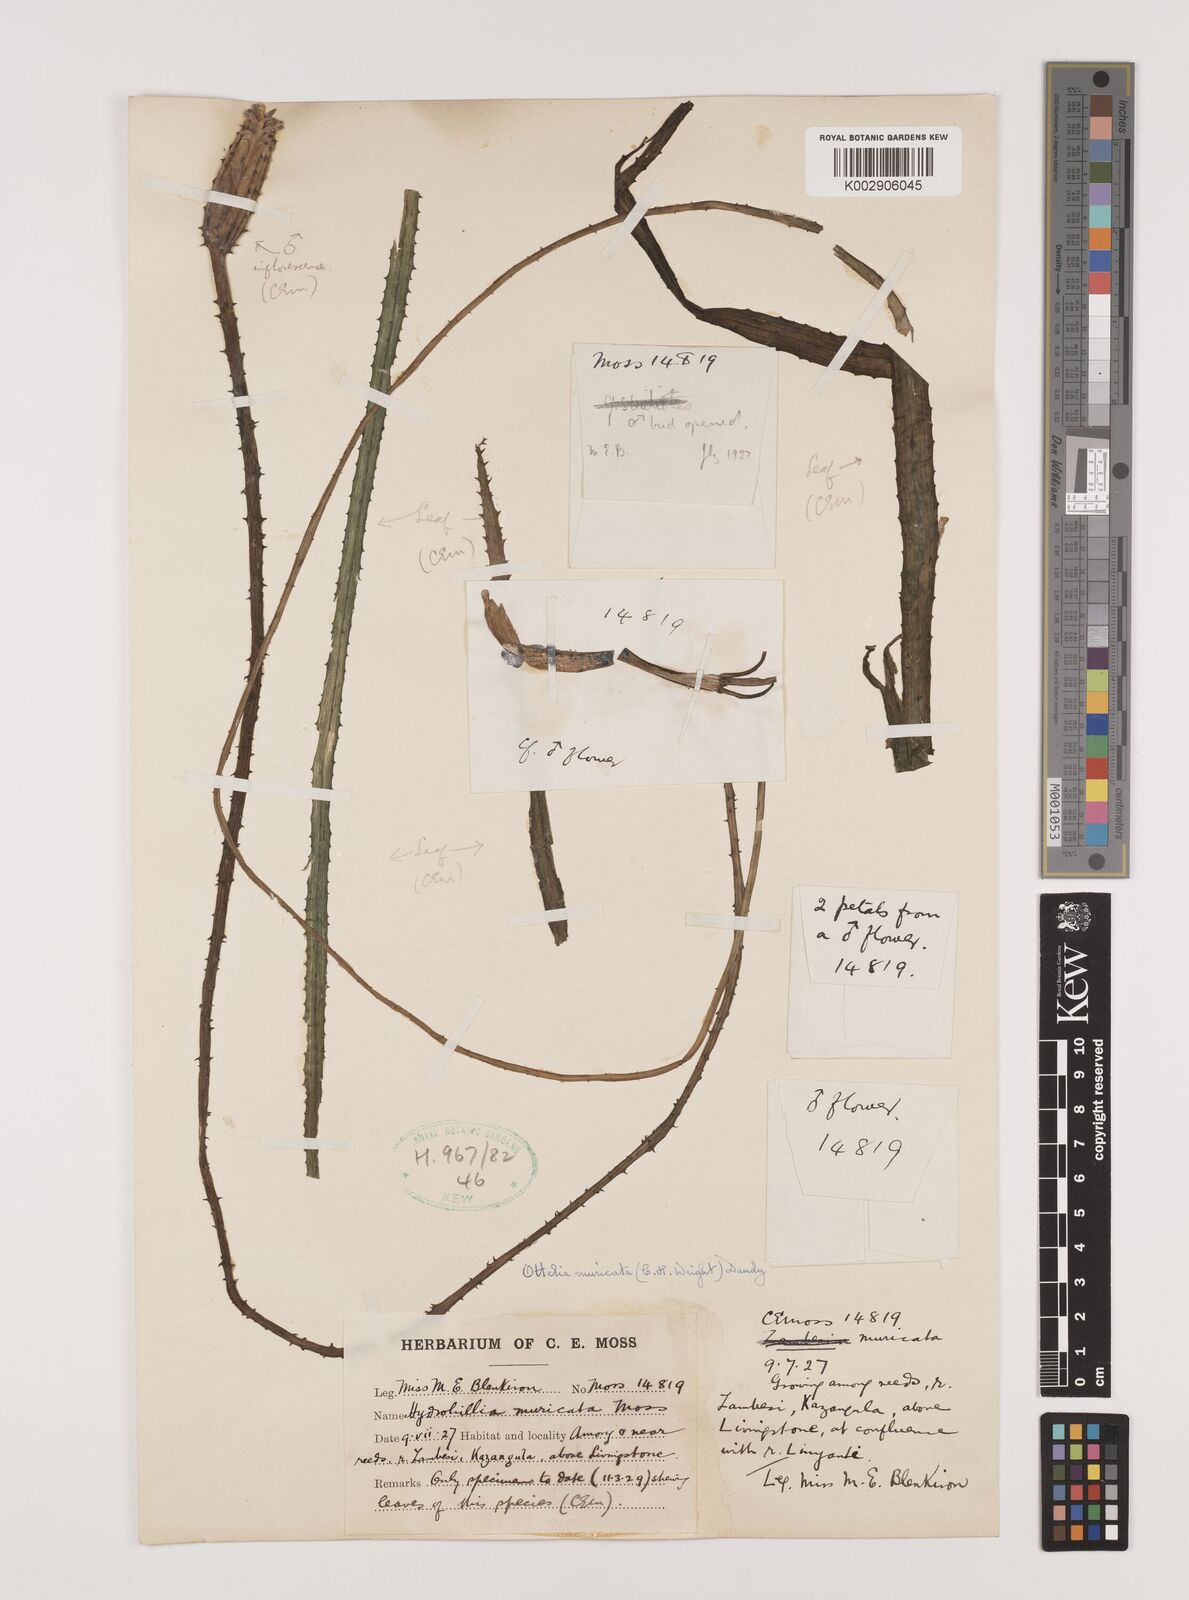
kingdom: Plantae
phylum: Tracheophyta
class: Liliopsida
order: Alismatales
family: Hydrocharitaceae
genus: Ottelia
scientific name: Ottelia muricata
